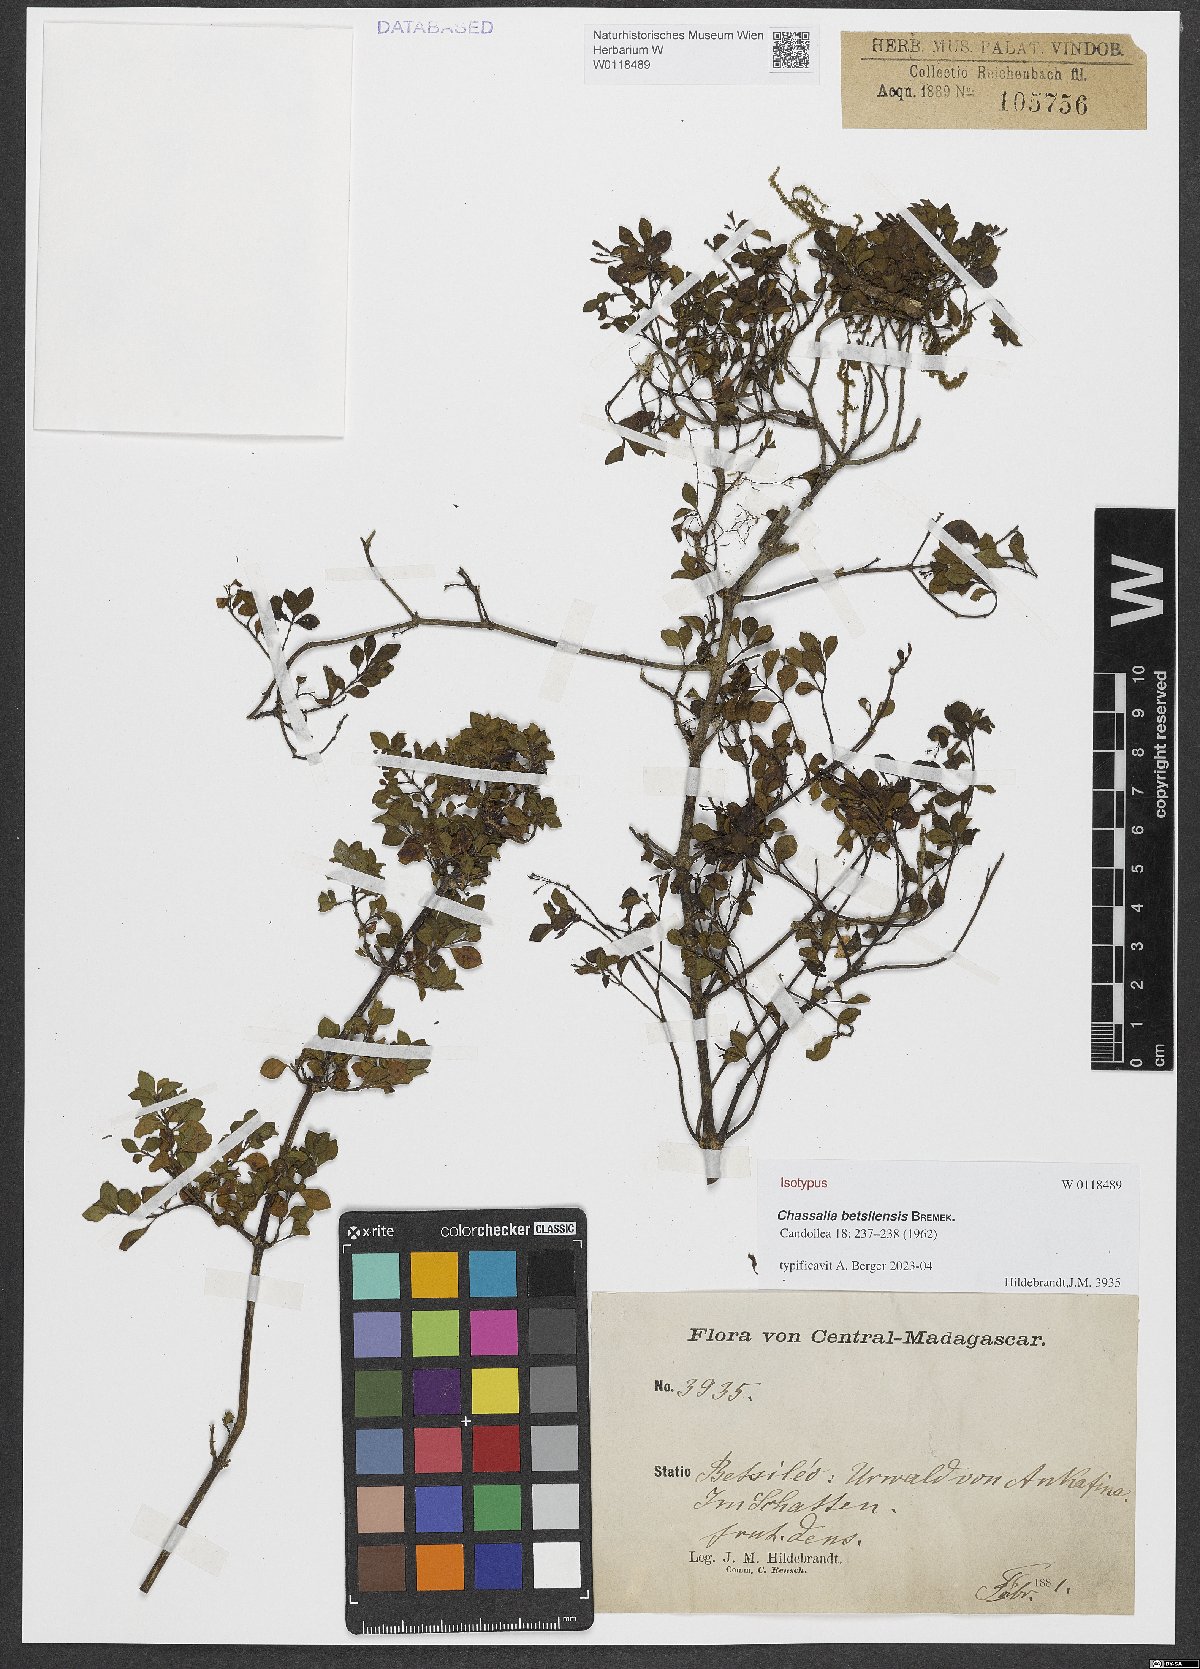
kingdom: Plantae
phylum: Tracheophyta
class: Magnoliopsida
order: Gentianales
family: Rubiaceae
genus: Chassalia
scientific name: Chassalia betsilensis
